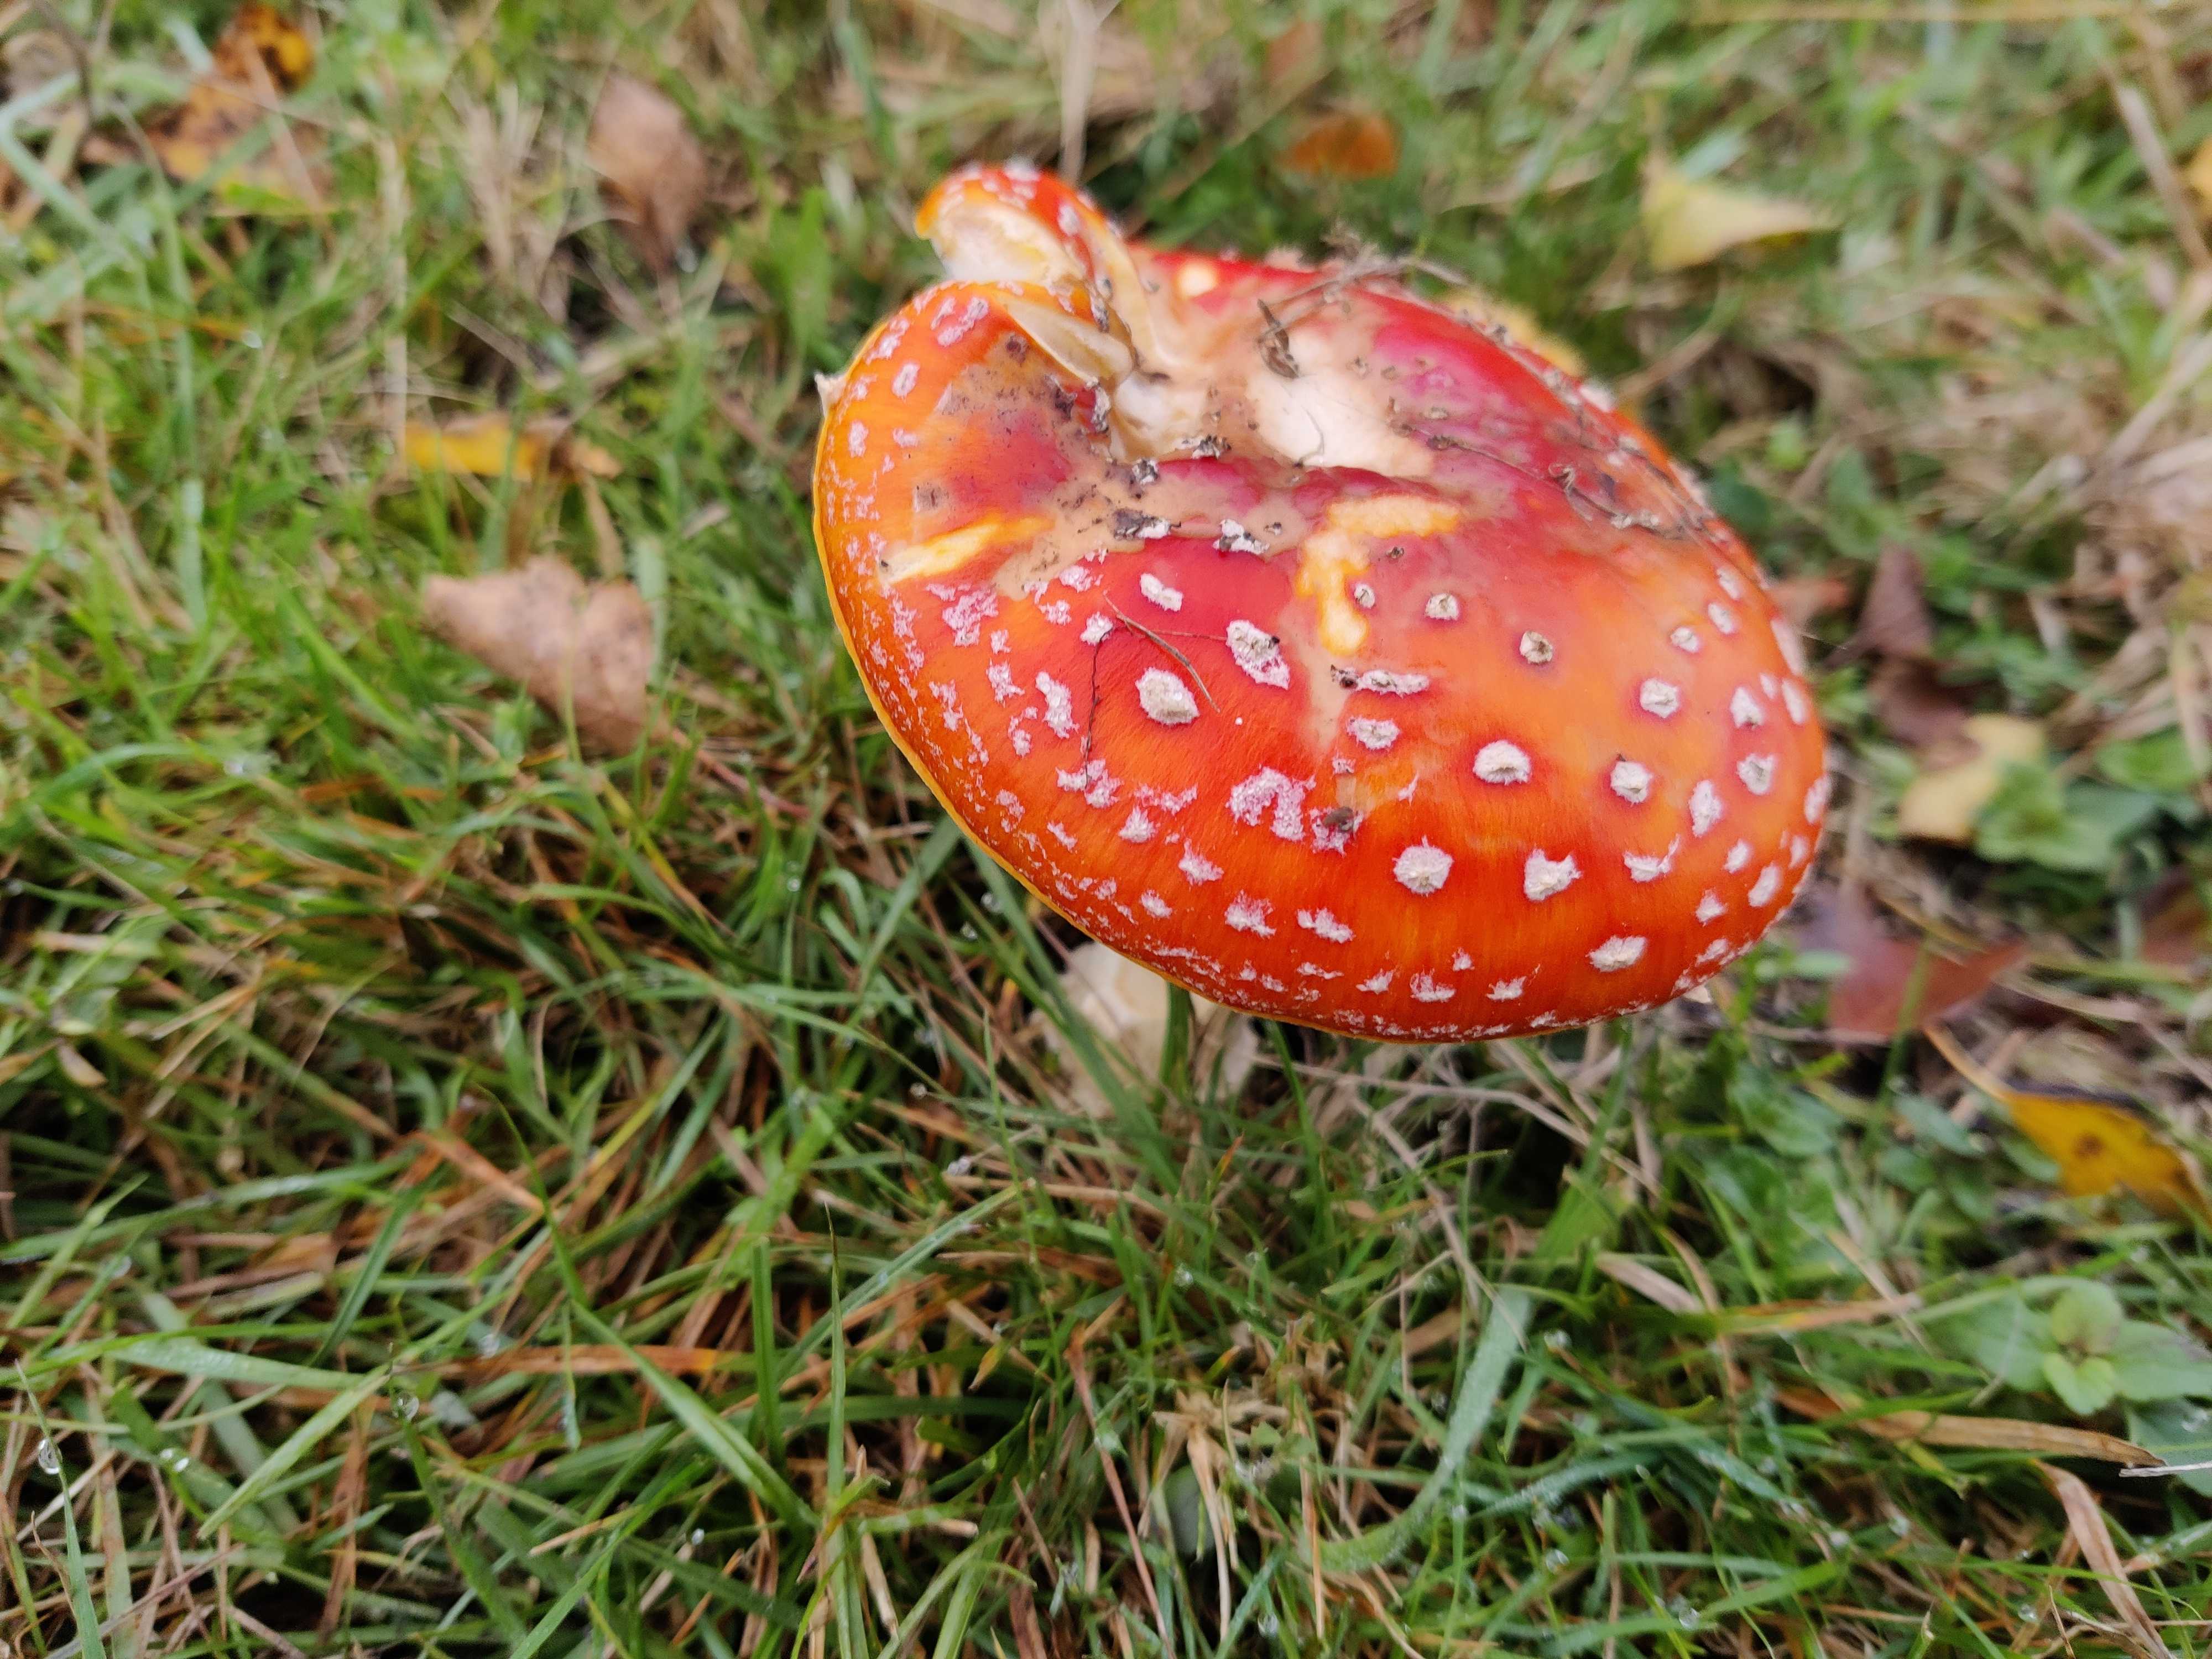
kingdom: Fungi
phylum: Basidiomycota
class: Agaricomycetes
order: Agaricales
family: Amanitaceae
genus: Amanita
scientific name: Amanita muscaria
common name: rød fluesvamp
